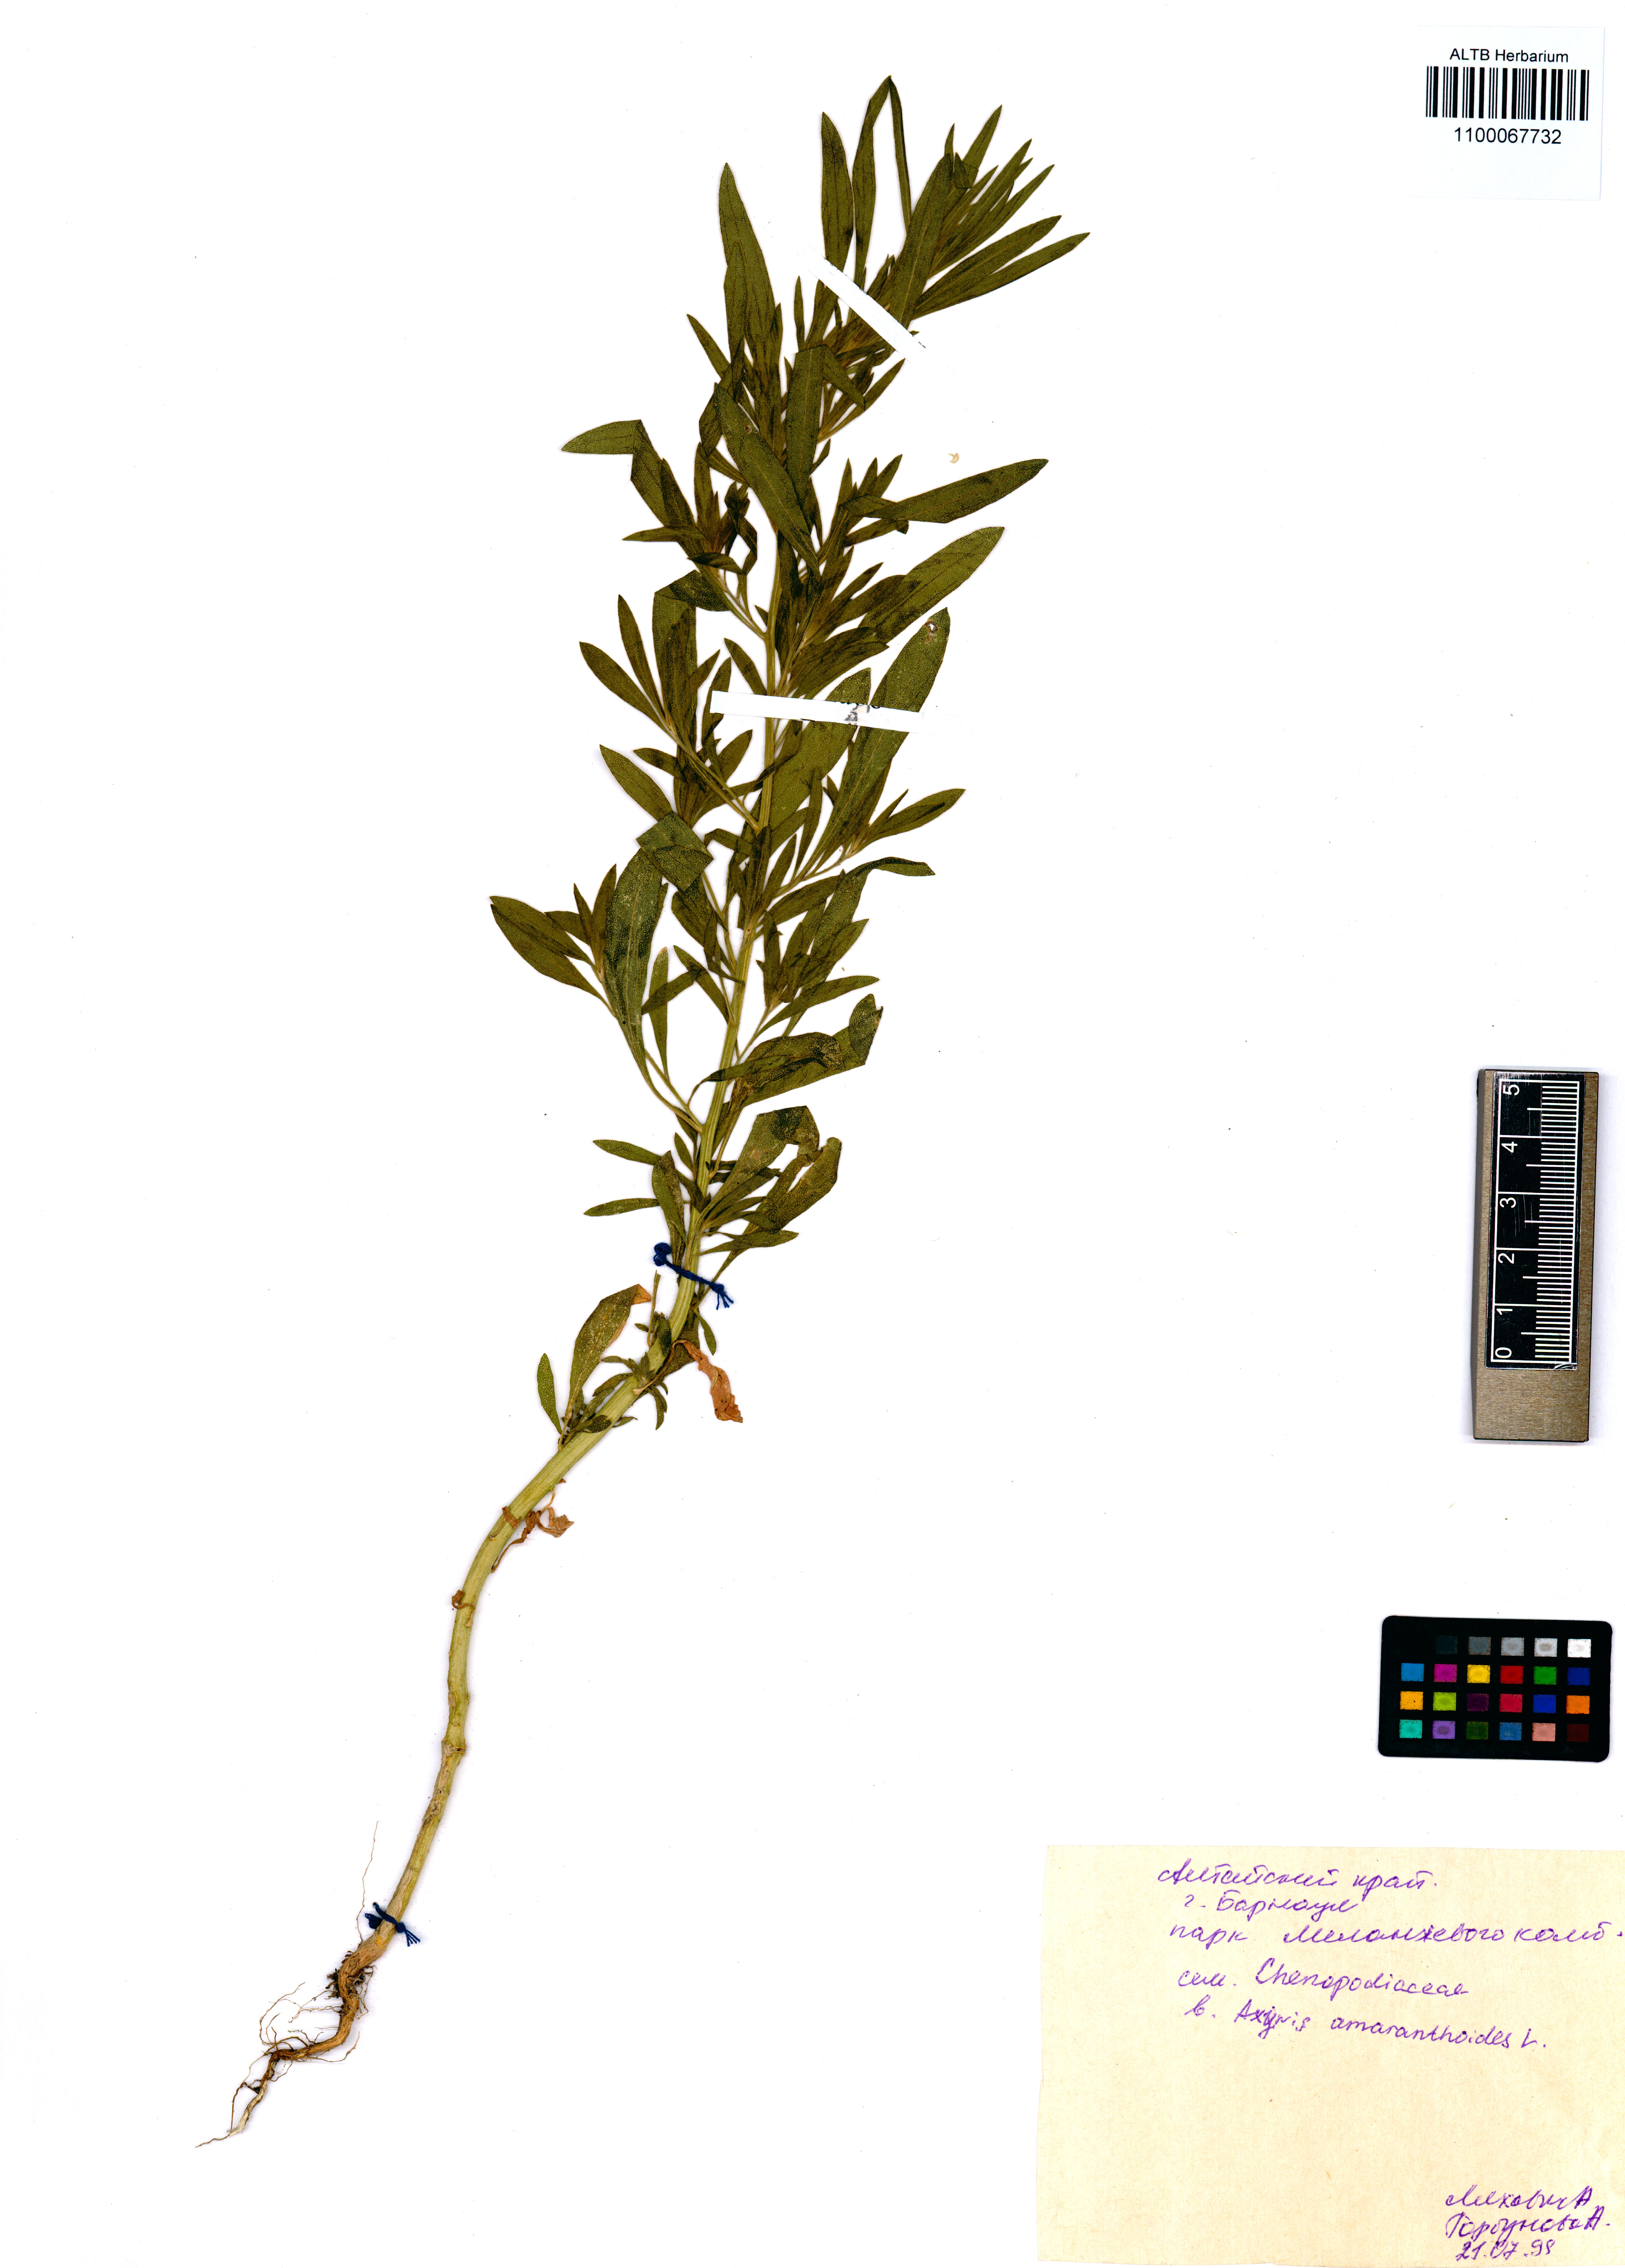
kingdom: Plantae
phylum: Tracheophyta
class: Magnoliopsida
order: Caryophyllales
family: Amaranthaceae
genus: Axyris
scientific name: Axyris amaranthoides
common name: Russian pigweed
